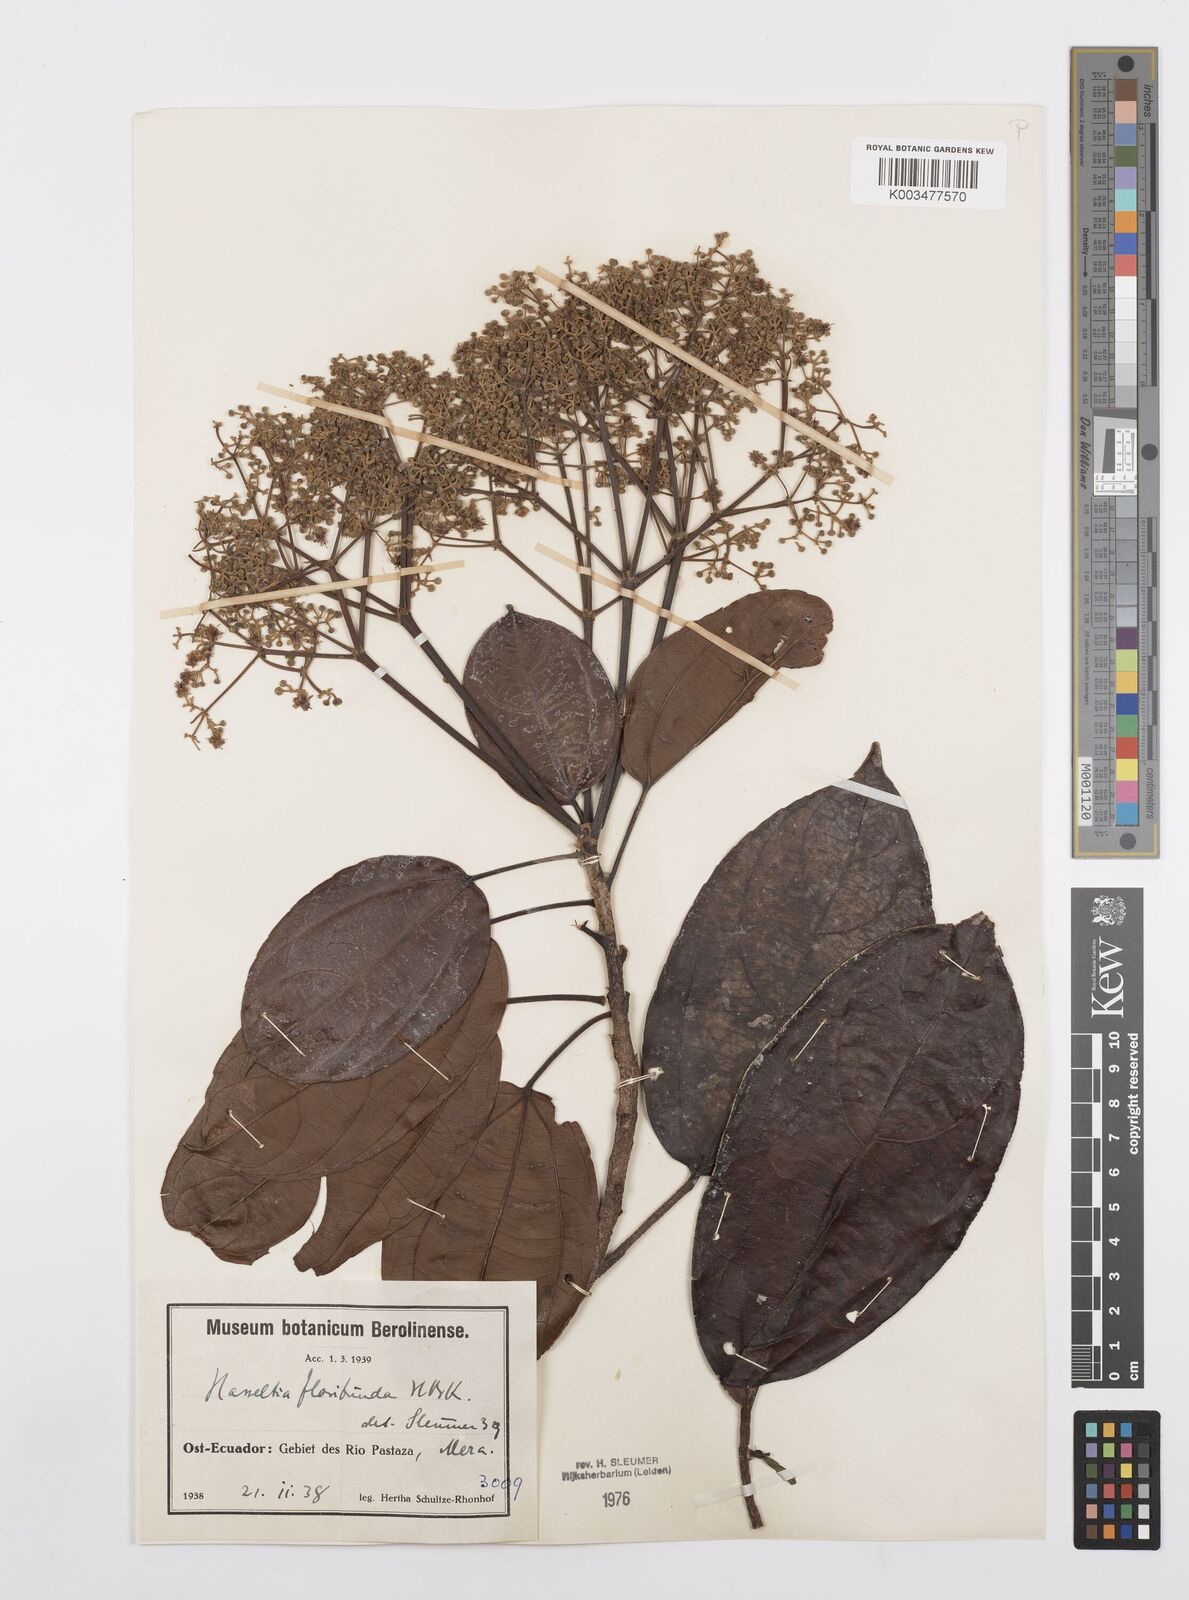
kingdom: Plantae
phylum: Tracheophyta
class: Magnoliopsida
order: Malpighiales
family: Salicaceae
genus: Hasseltia
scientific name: Hasseltia floribunda
